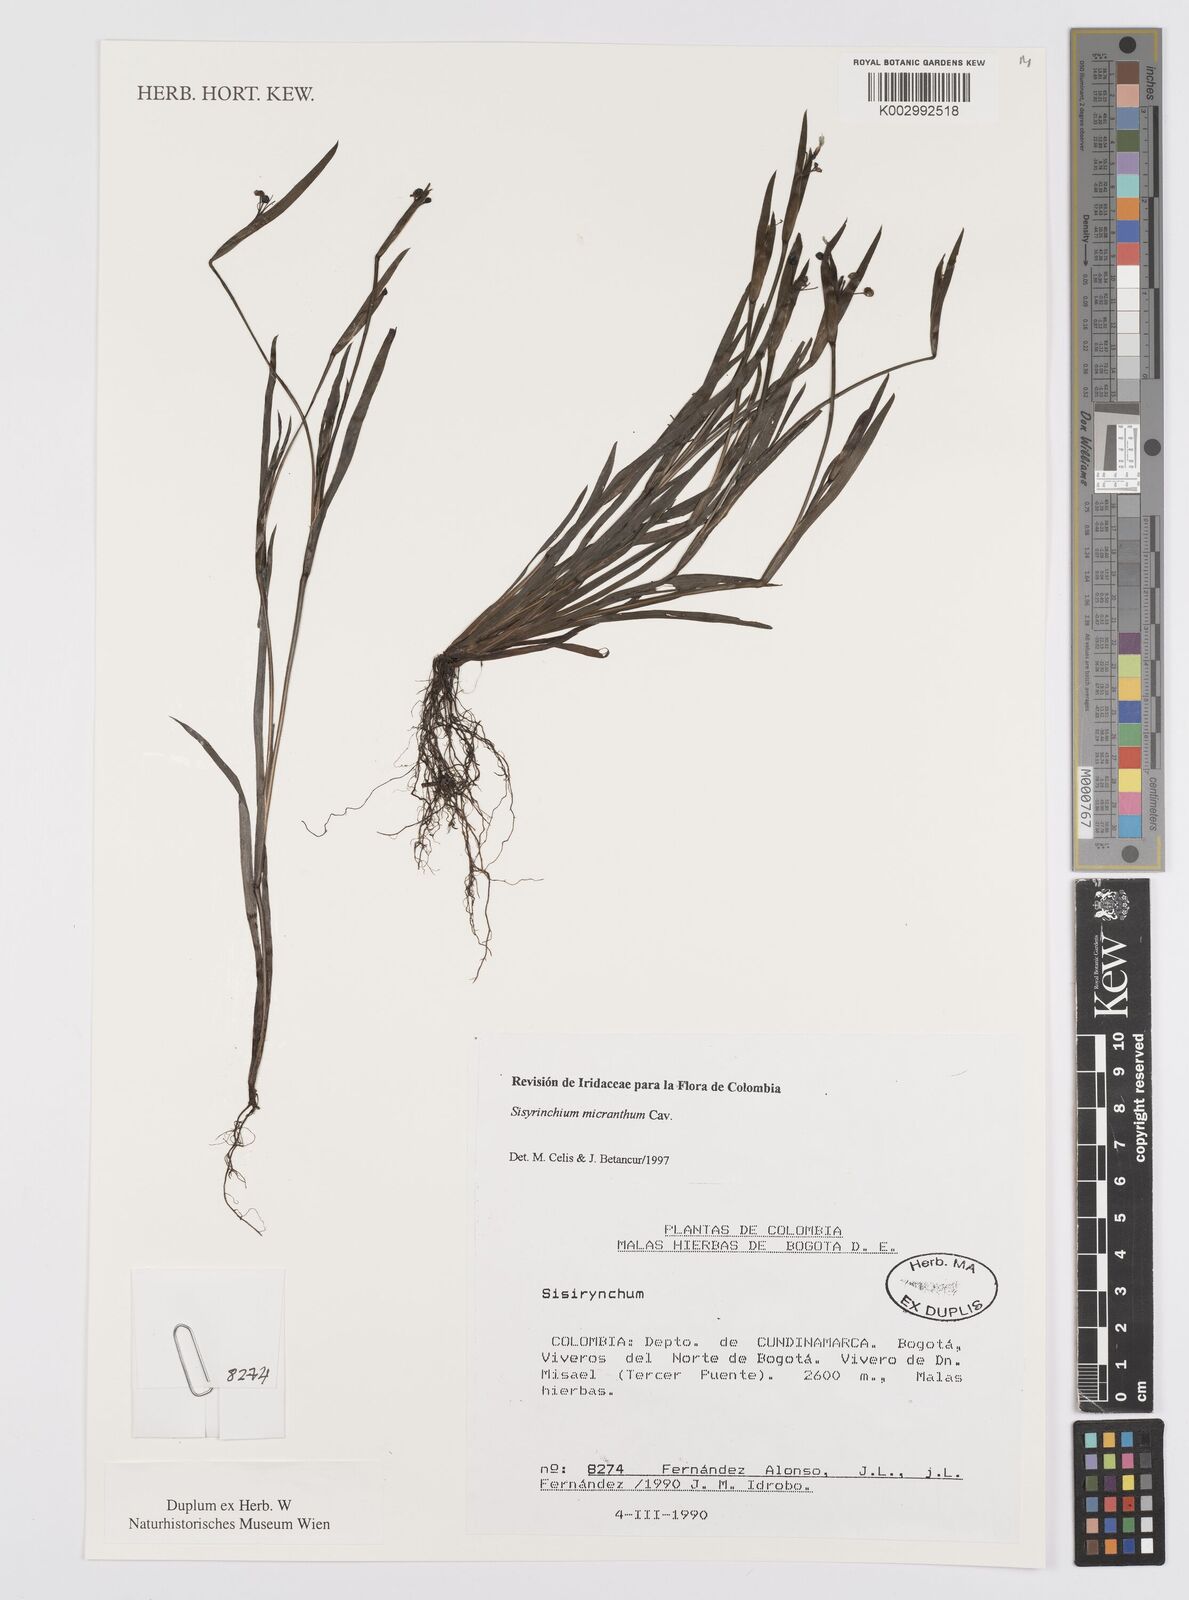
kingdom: Plantae
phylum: Tracheophyta
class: Liliopsida
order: Asparagales
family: Iridaceae
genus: Sisyrinchium
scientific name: Sisyrinchium micranthum
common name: Bermuda pigroot
